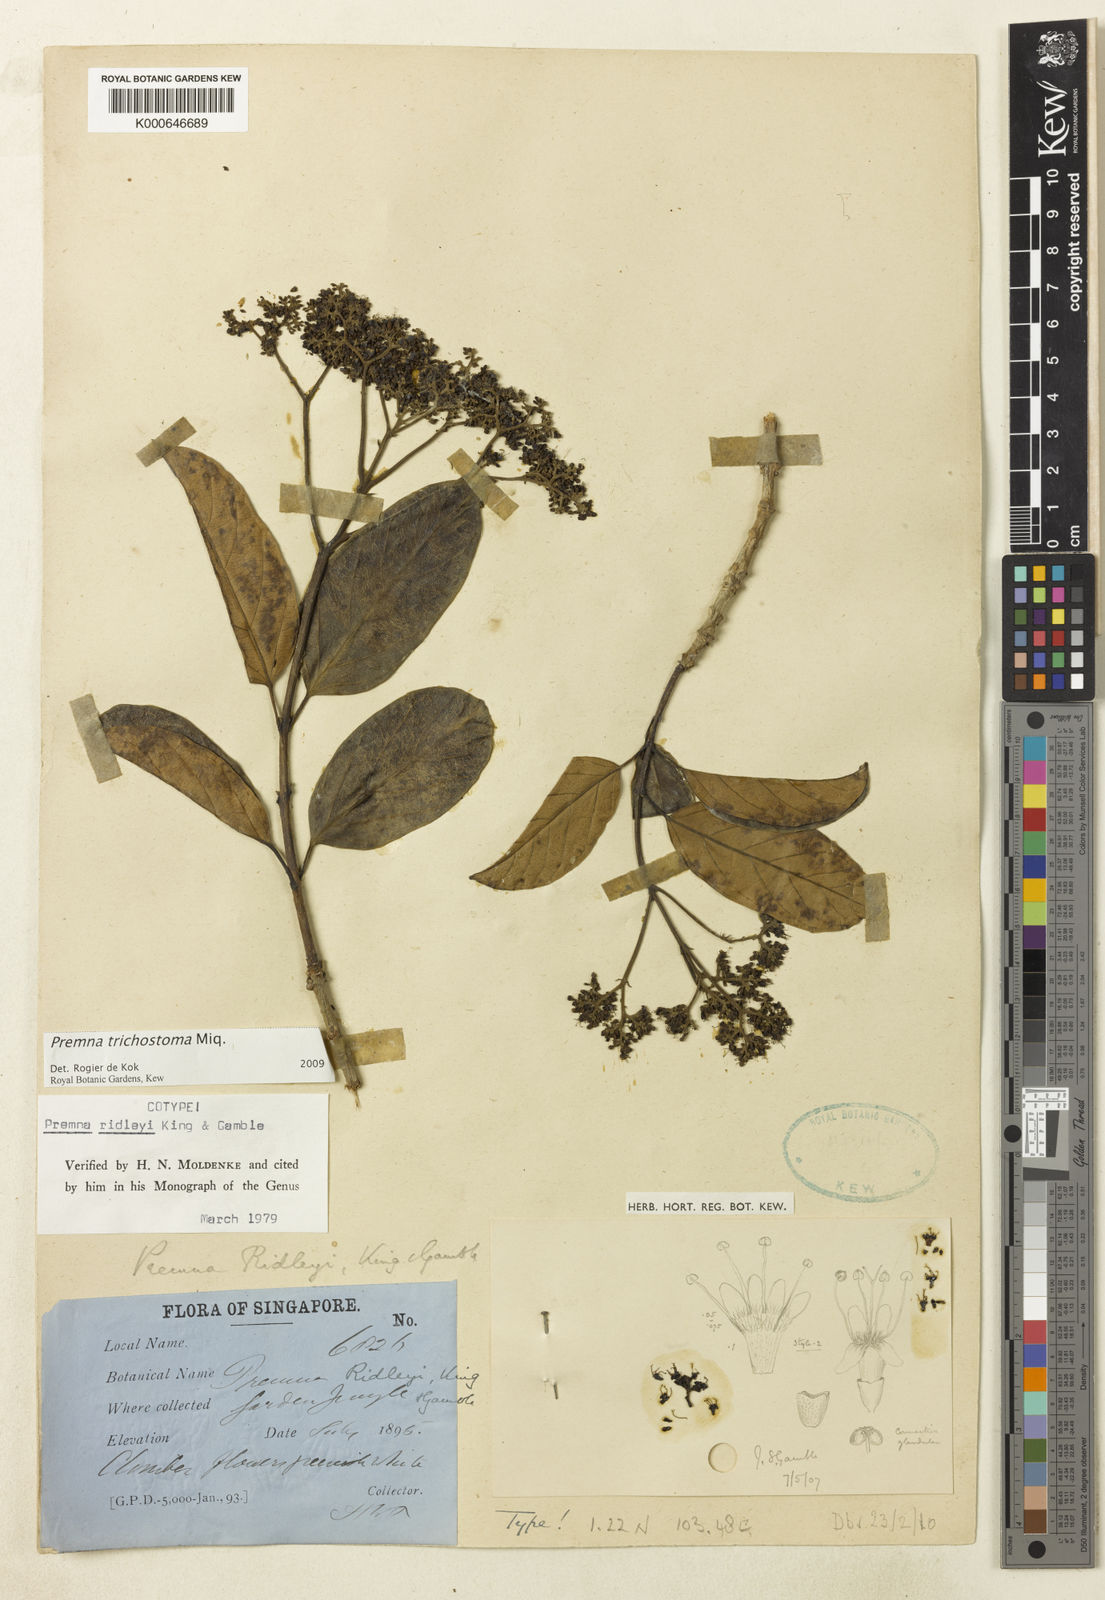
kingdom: Plantae
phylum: Tracheophyta
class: Magnoliopsida
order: Lamiales
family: Lamiaceae
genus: Premna
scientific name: Premna trichostoma
